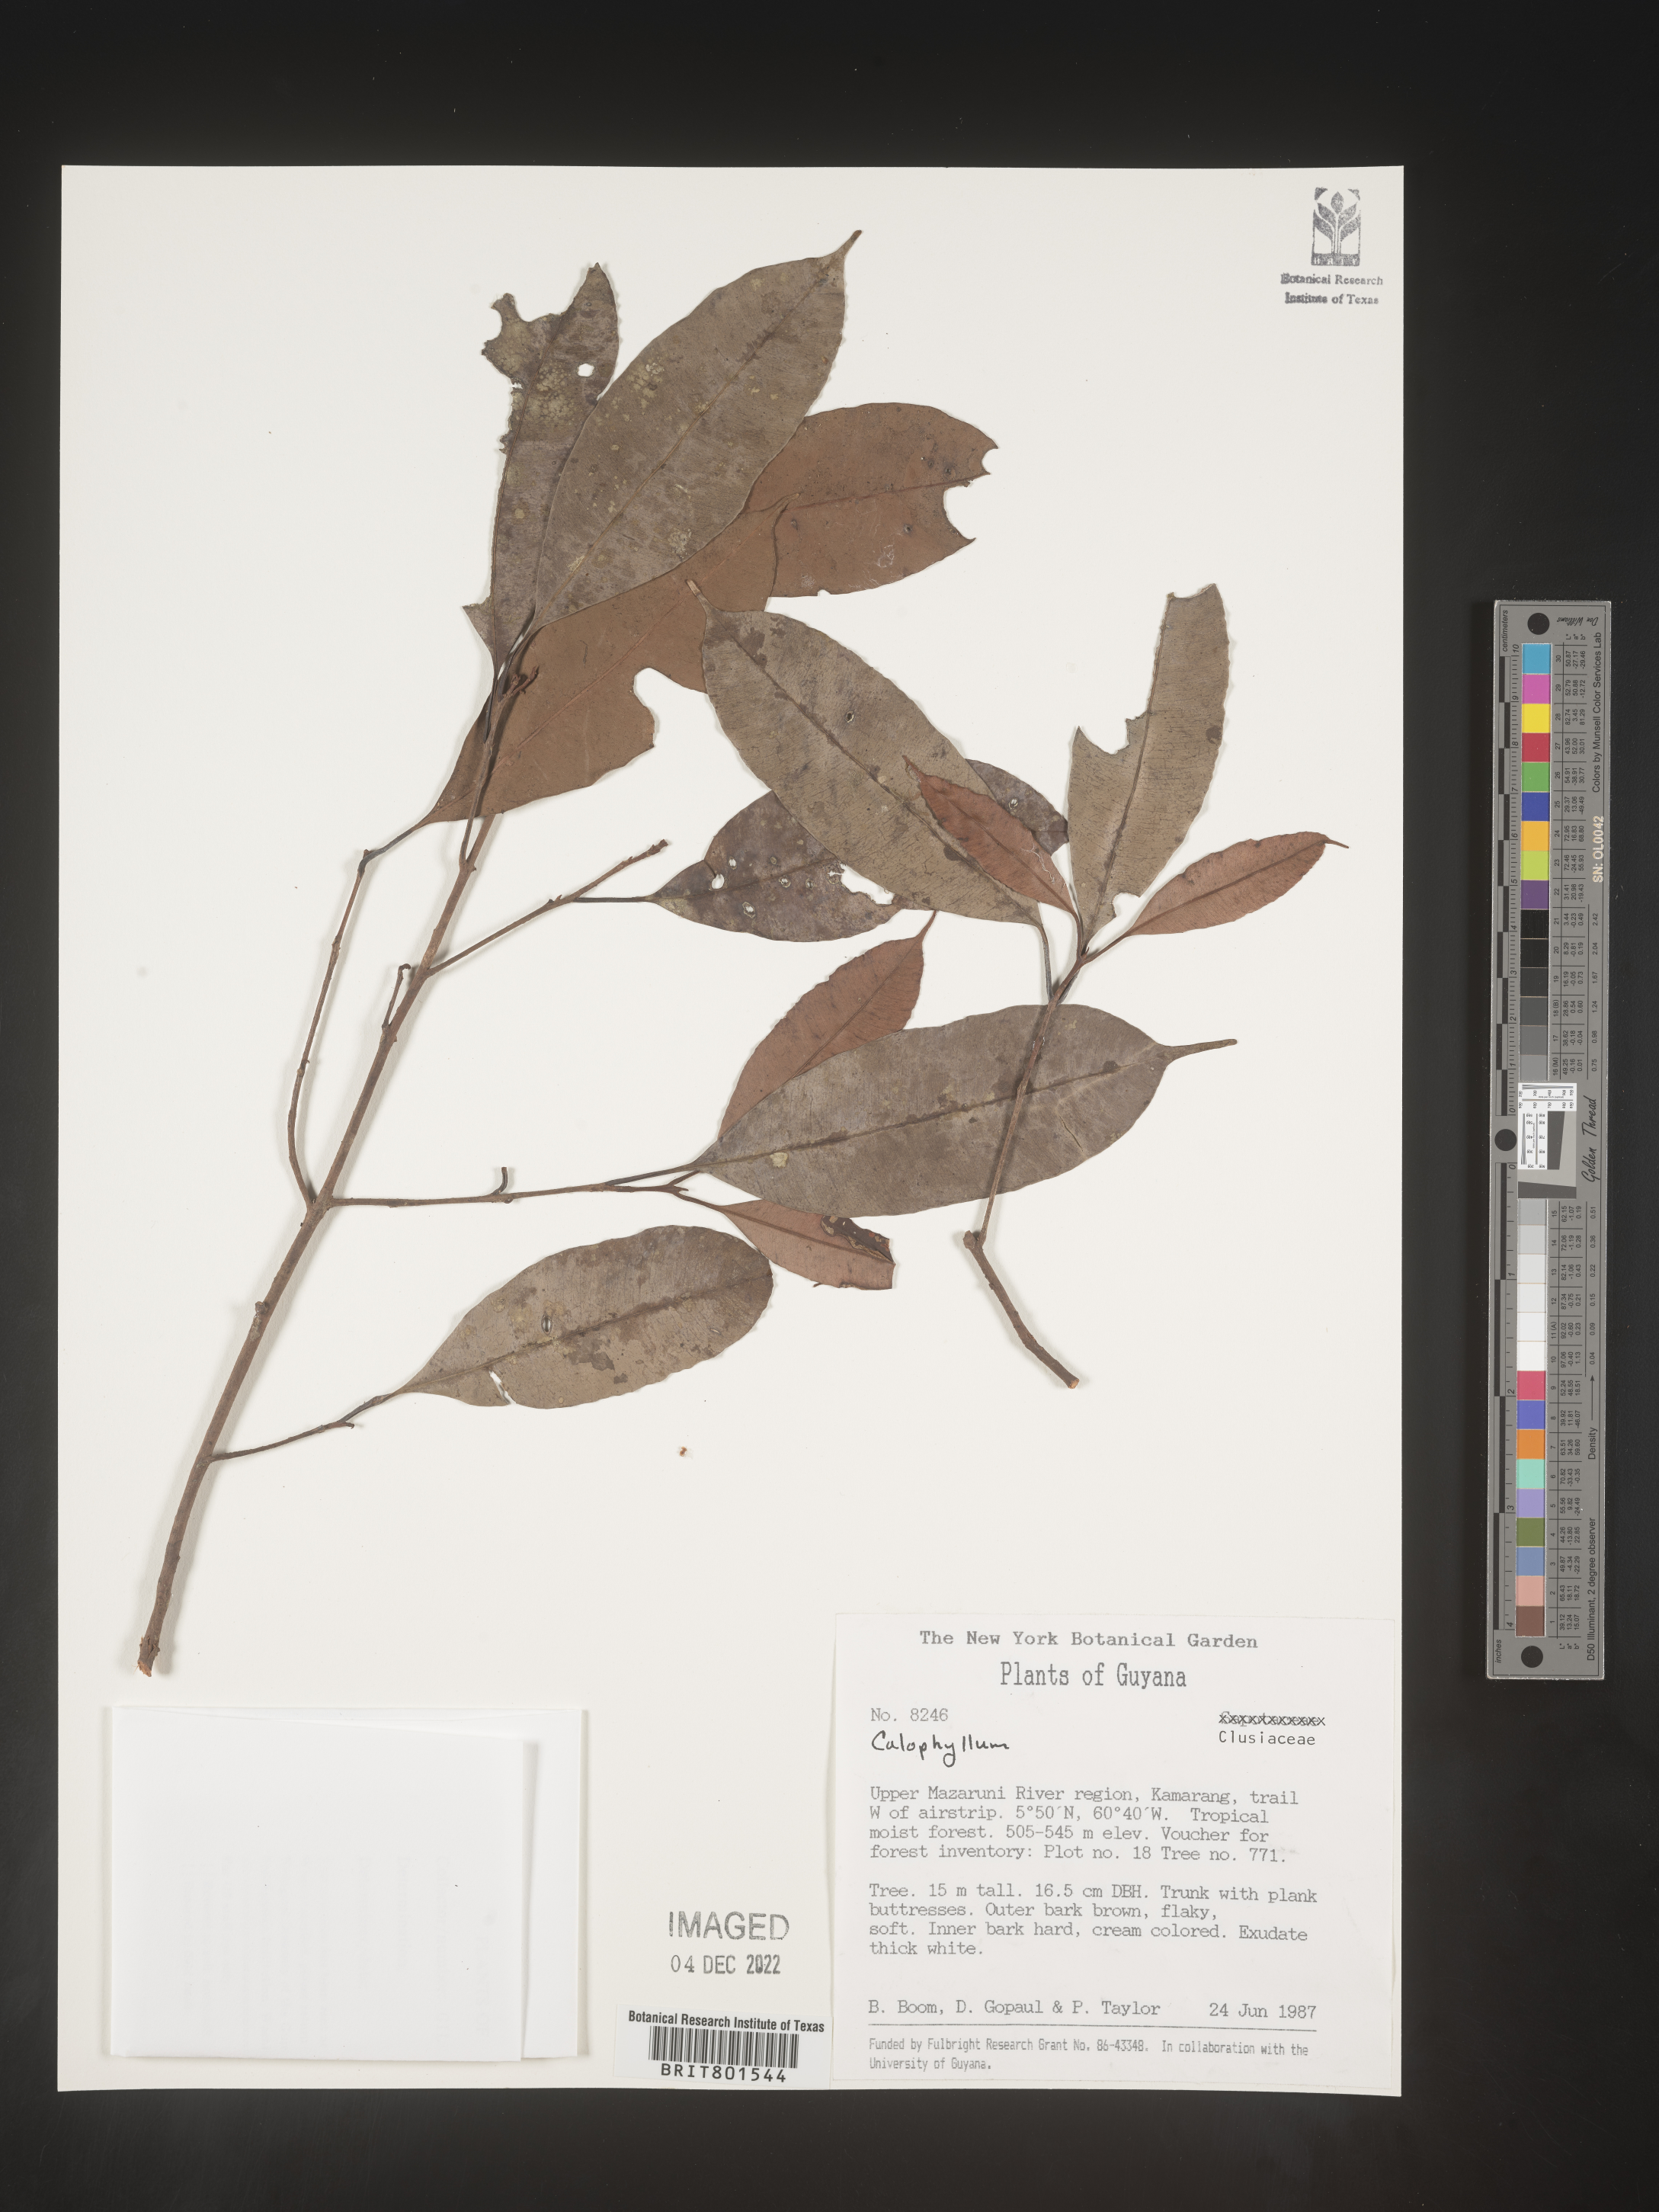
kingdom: Plantae
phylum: Tracheophyta
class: Magnoliopsida
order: Malpighiales
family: Calophyllaceae
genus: Calophyllum
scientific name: Calophyllum
